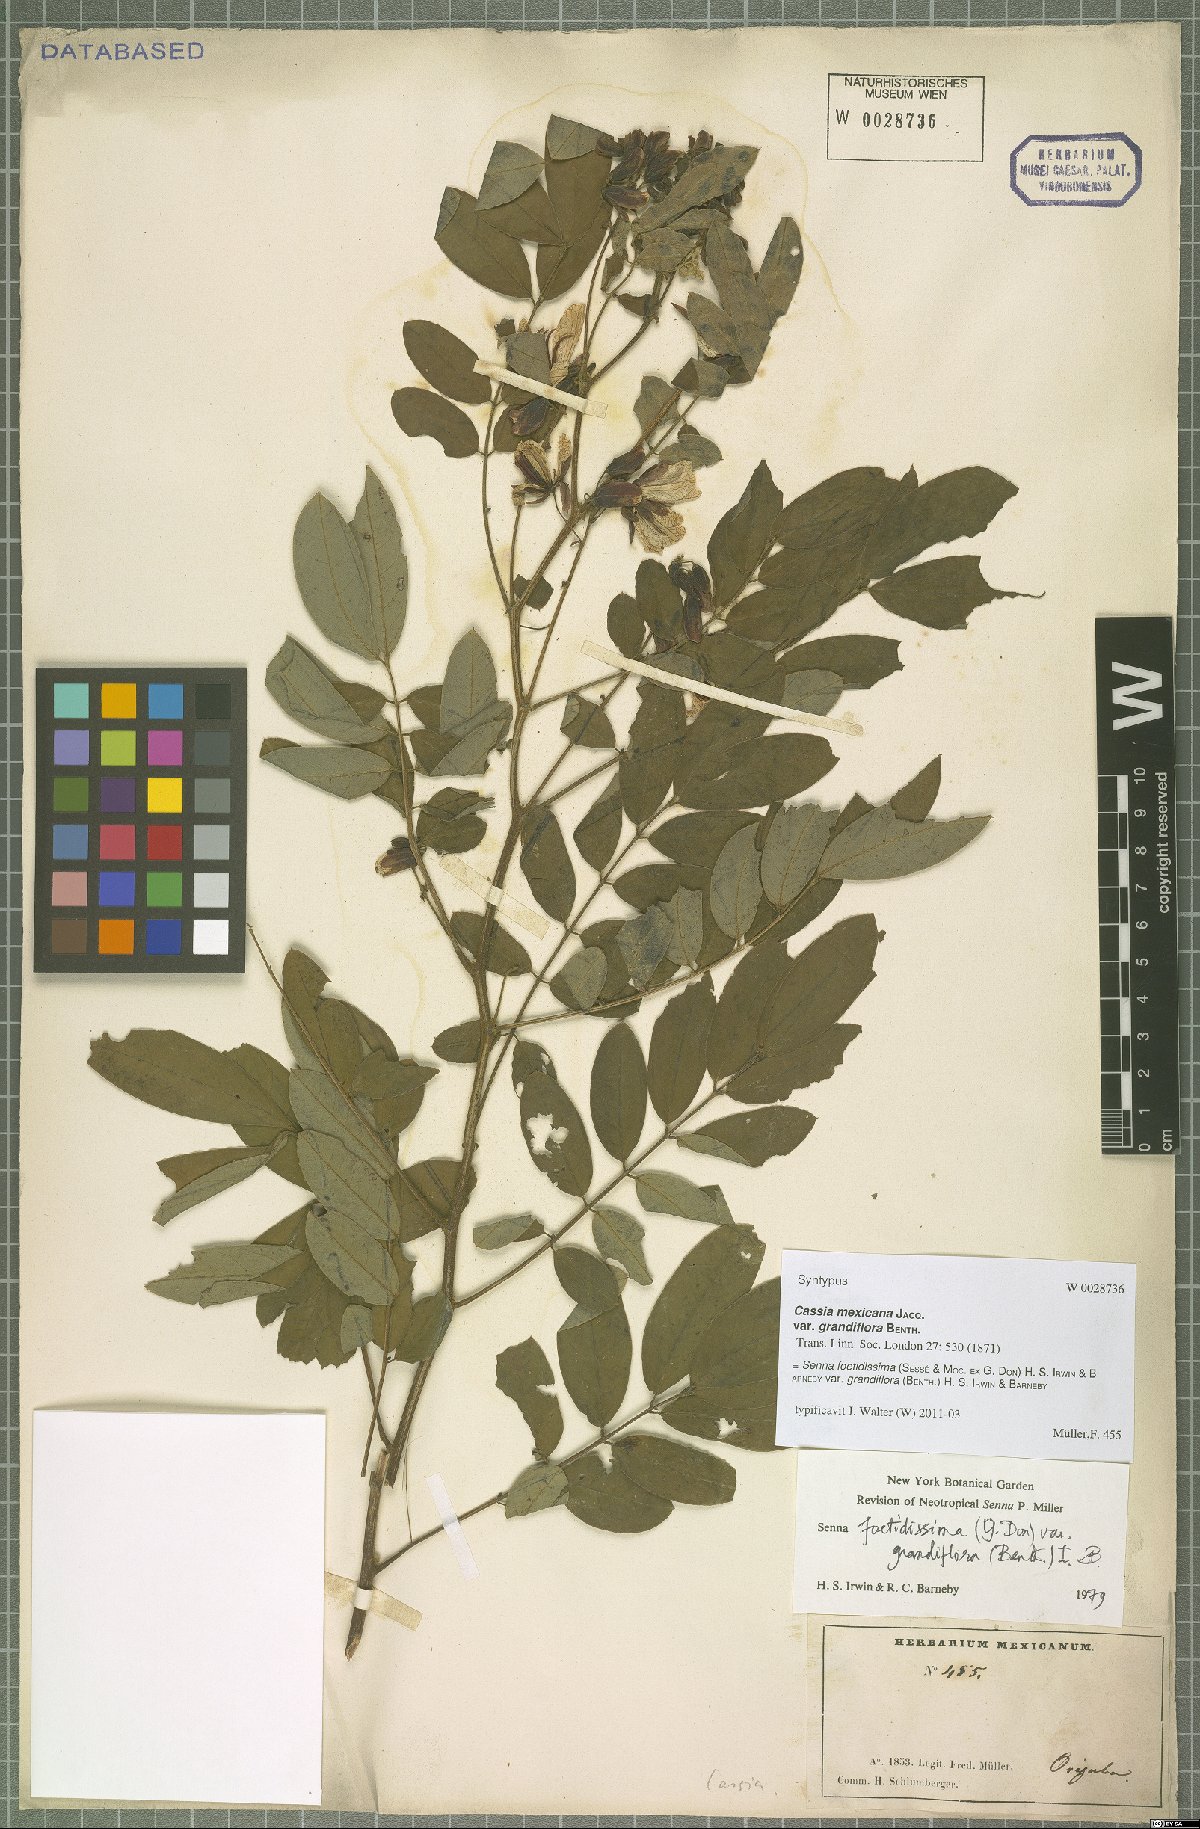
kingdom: Plantae
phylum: Tracheophyta
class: Magnoliopsida
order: Fabales
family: Fabaceae
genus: Senna
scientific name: Senna foetidissima
